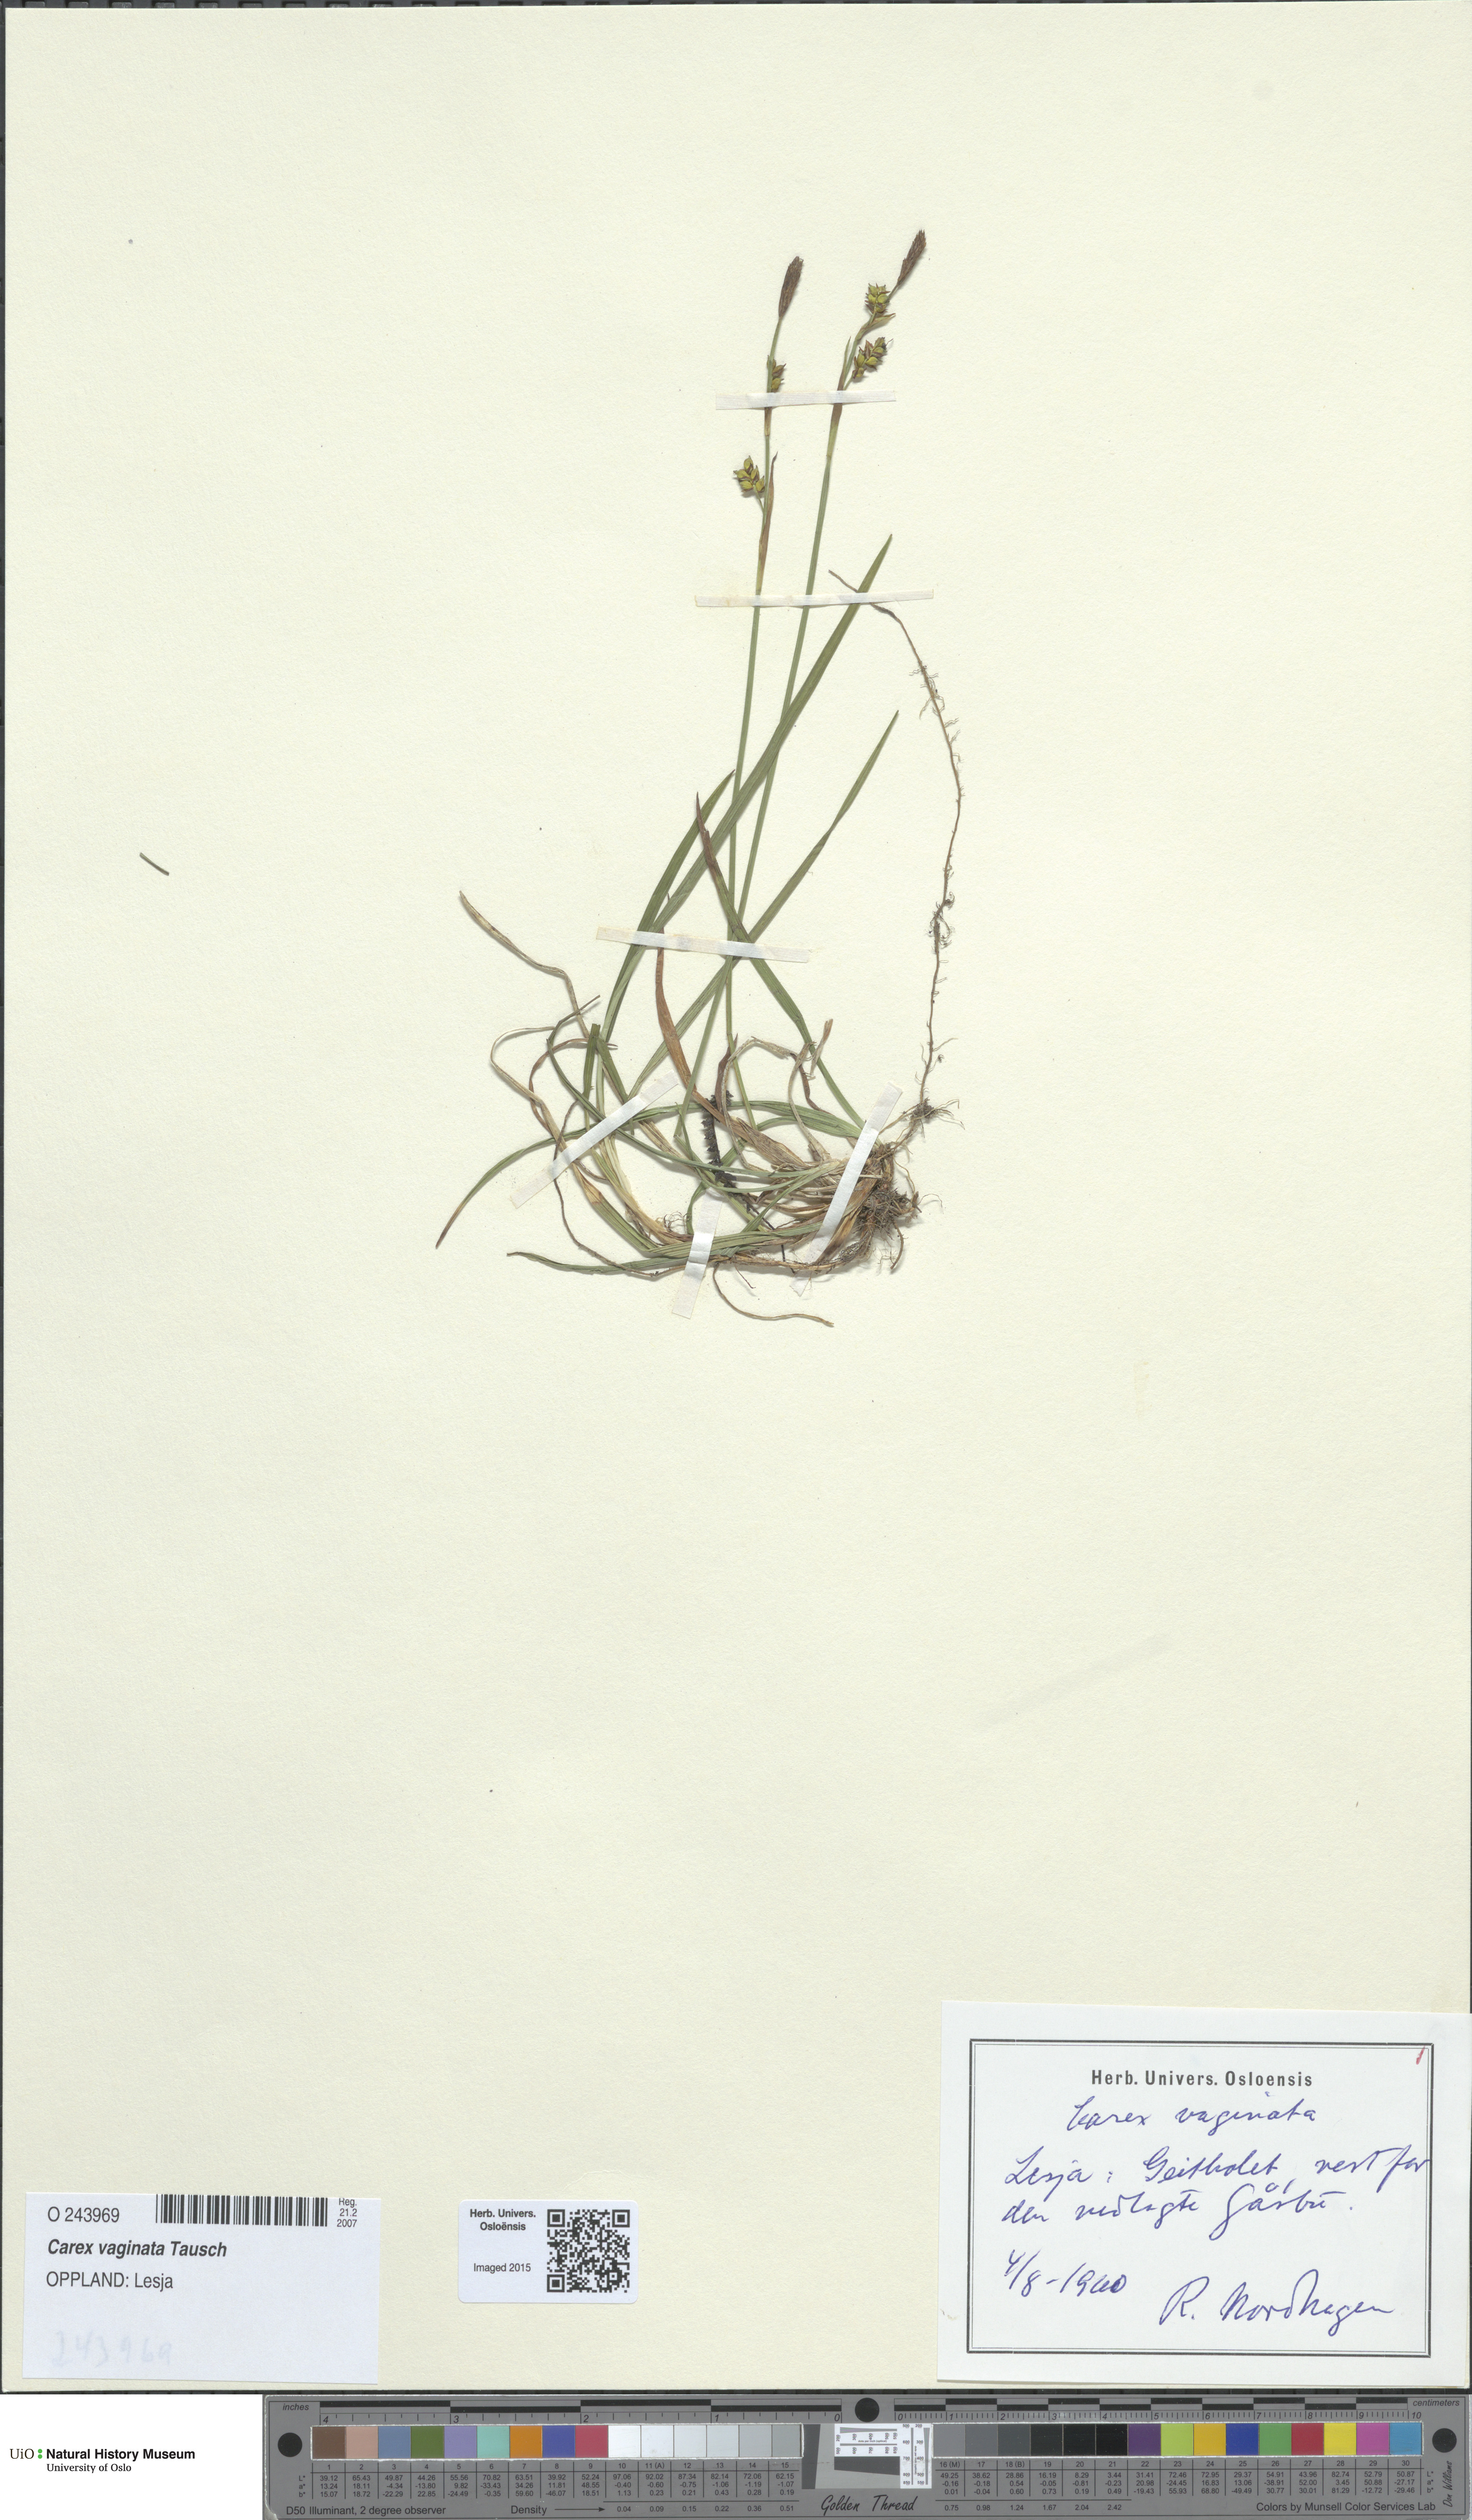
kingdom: Plantae
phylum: Tracheophyta
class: Liliopsida
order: Poales
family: Cyperaceae
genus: Carex
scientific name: Carex vaginata
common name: Sheathed sedge
